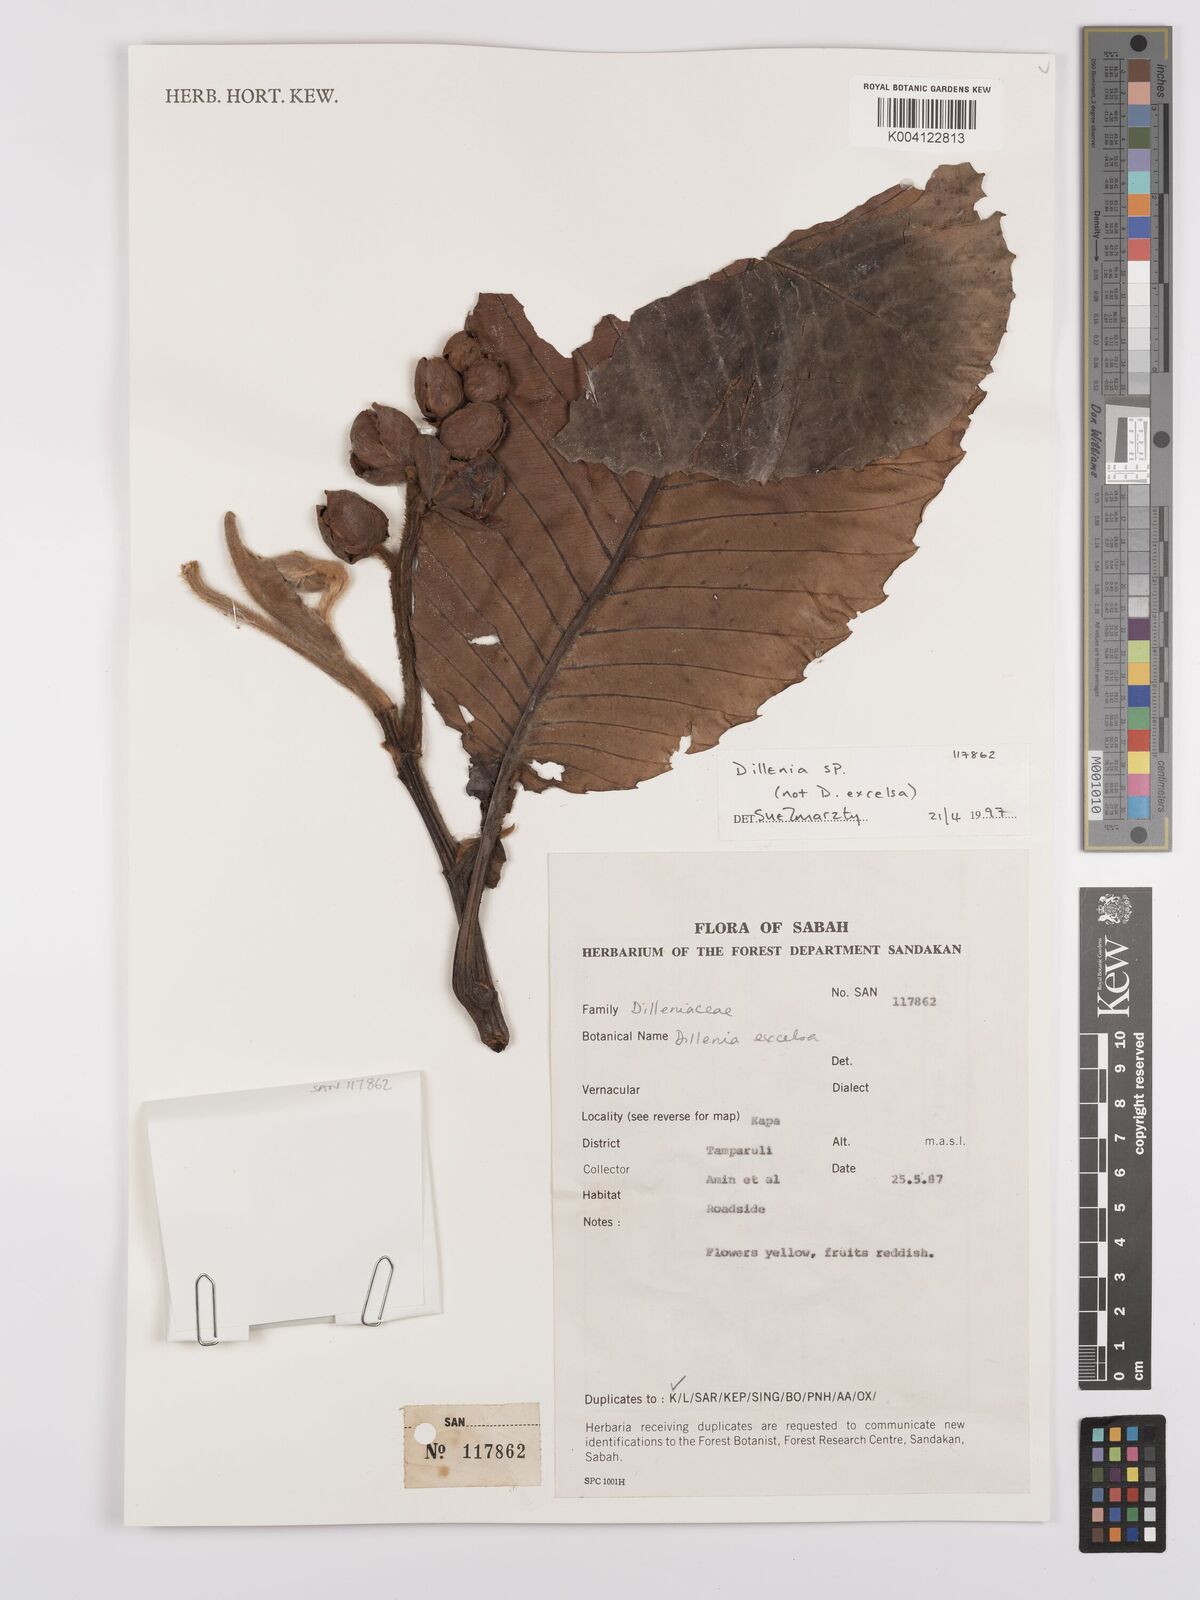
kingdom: Plantae
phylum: Tracheophyta
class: Magnoliopsida
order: Dilleniales
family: Dilleniaceae
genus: Dillenia
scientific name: Dillenia
